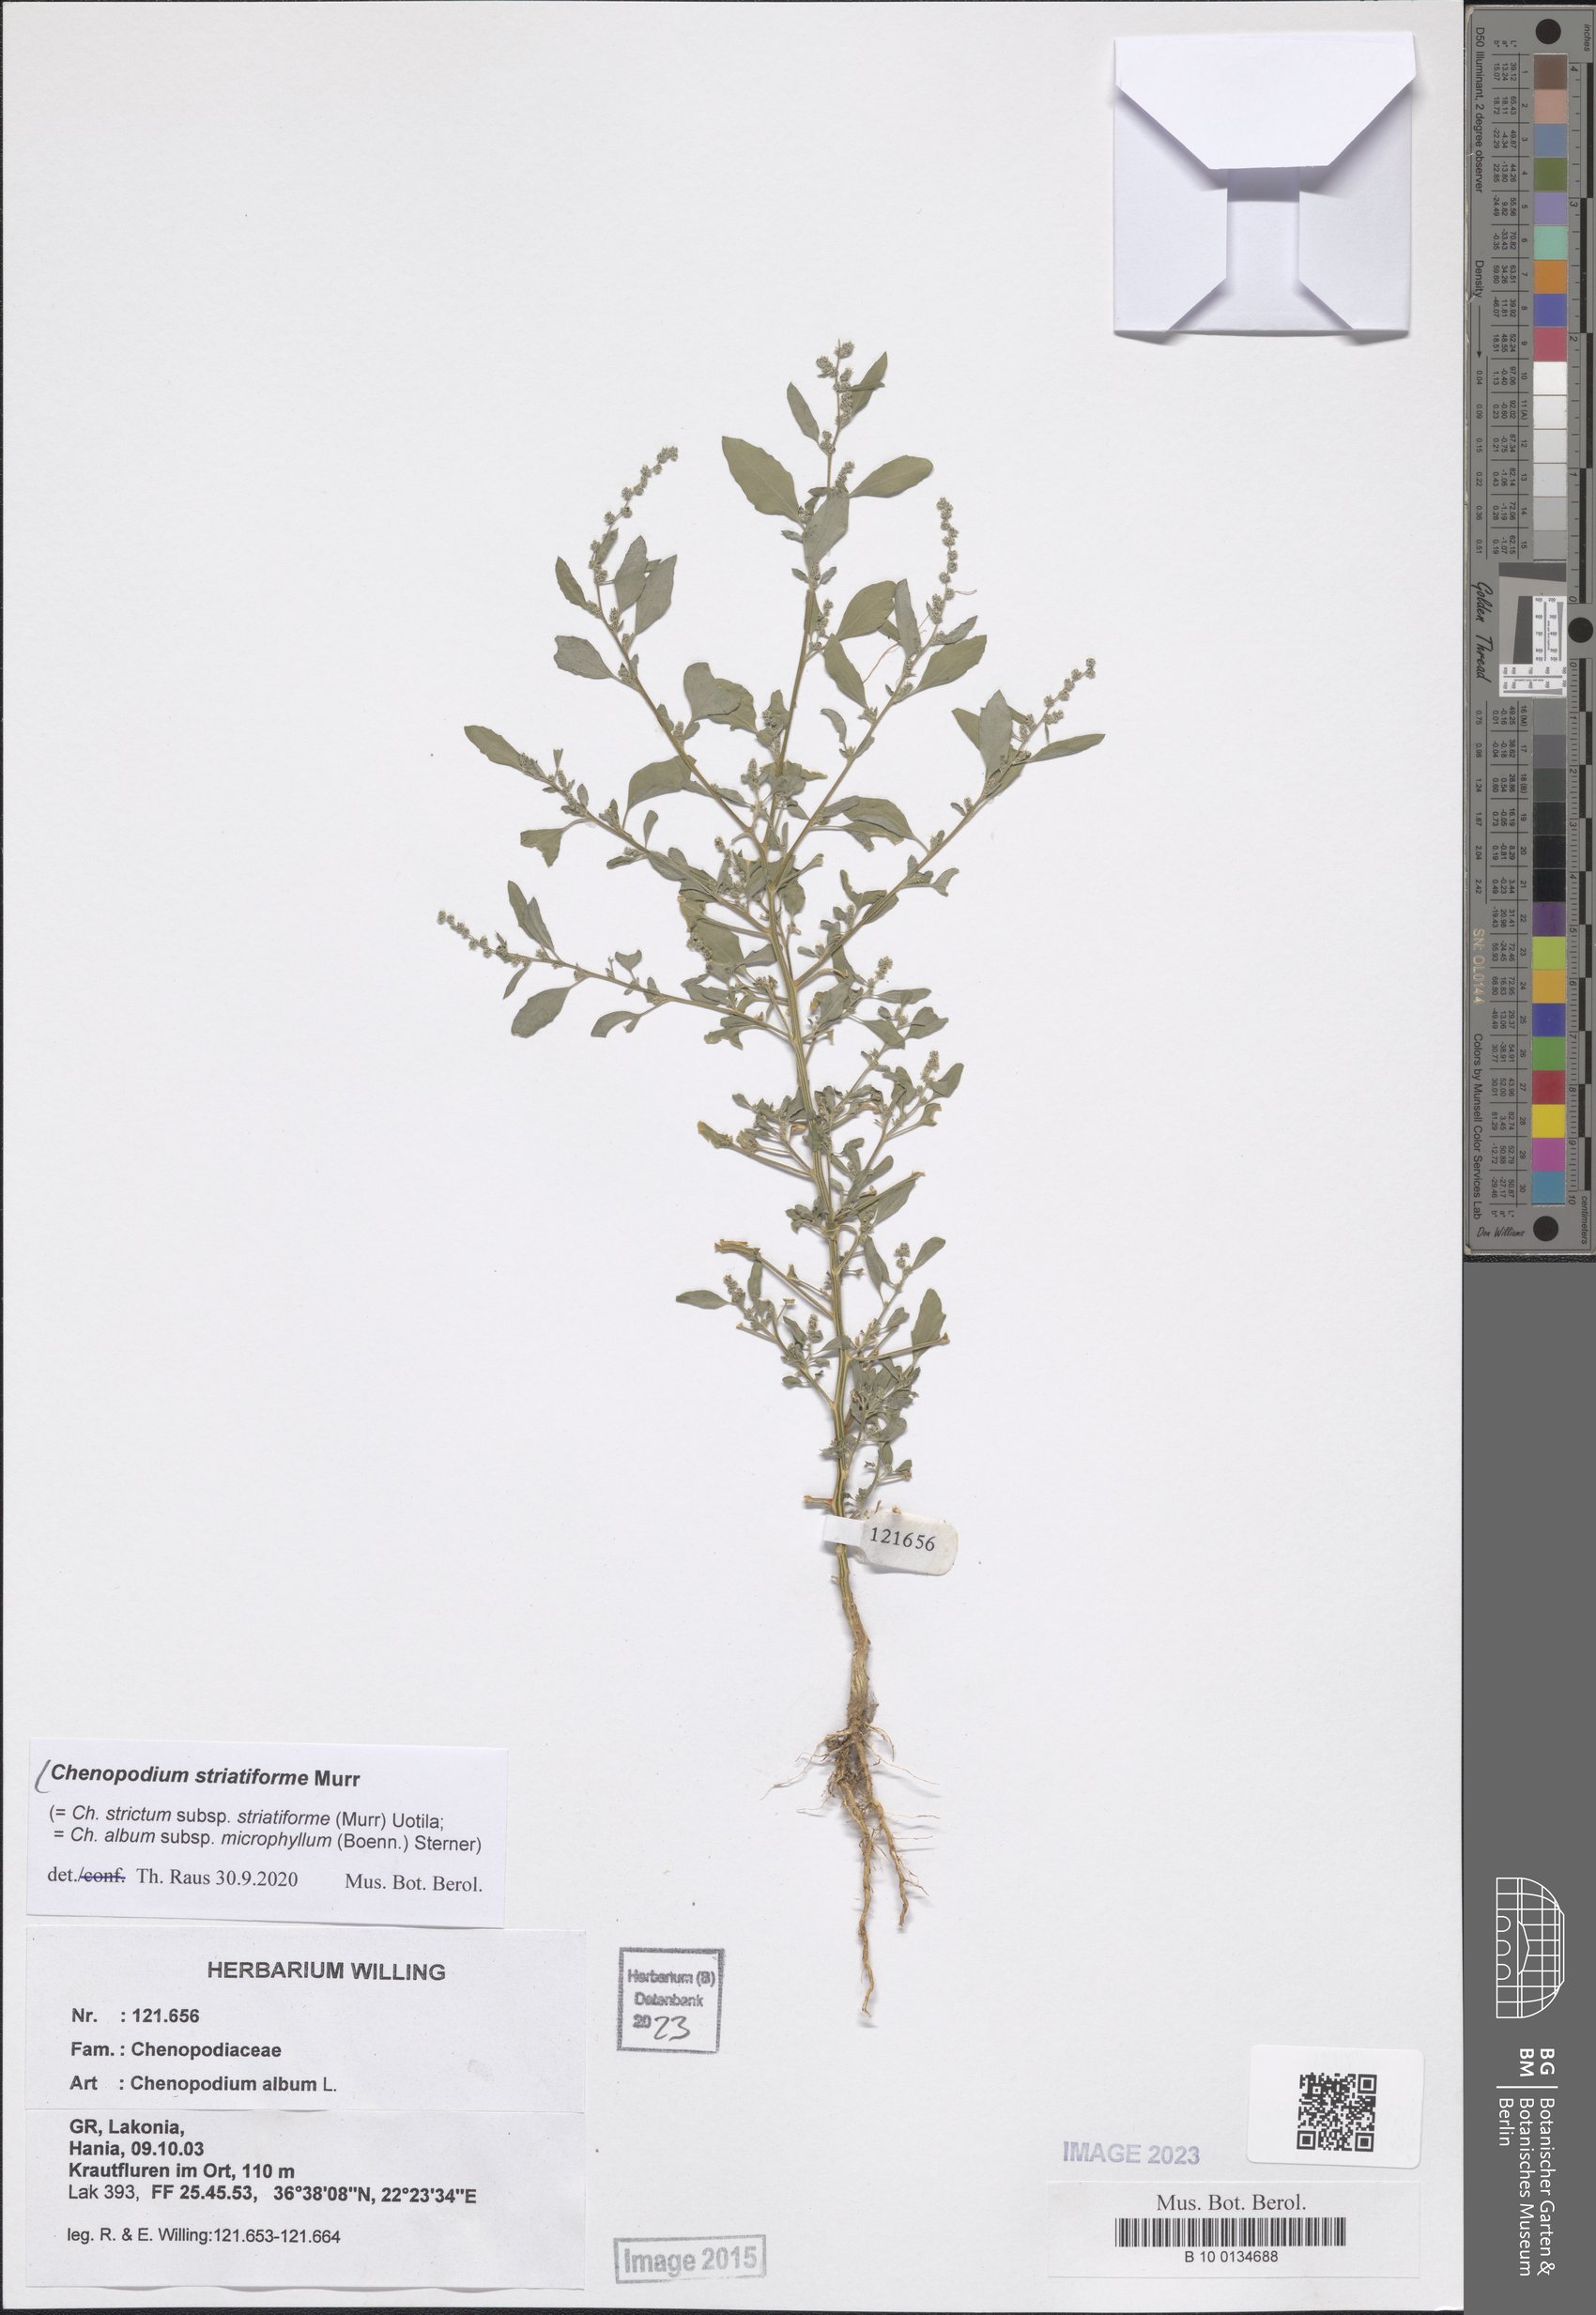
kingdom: Plantae
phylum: Tracheophyta
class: Magnoliopsida
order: Caryophyllales
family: Amaranthaceae
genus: Chenopodium
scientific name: Chenopodium striatiforme
